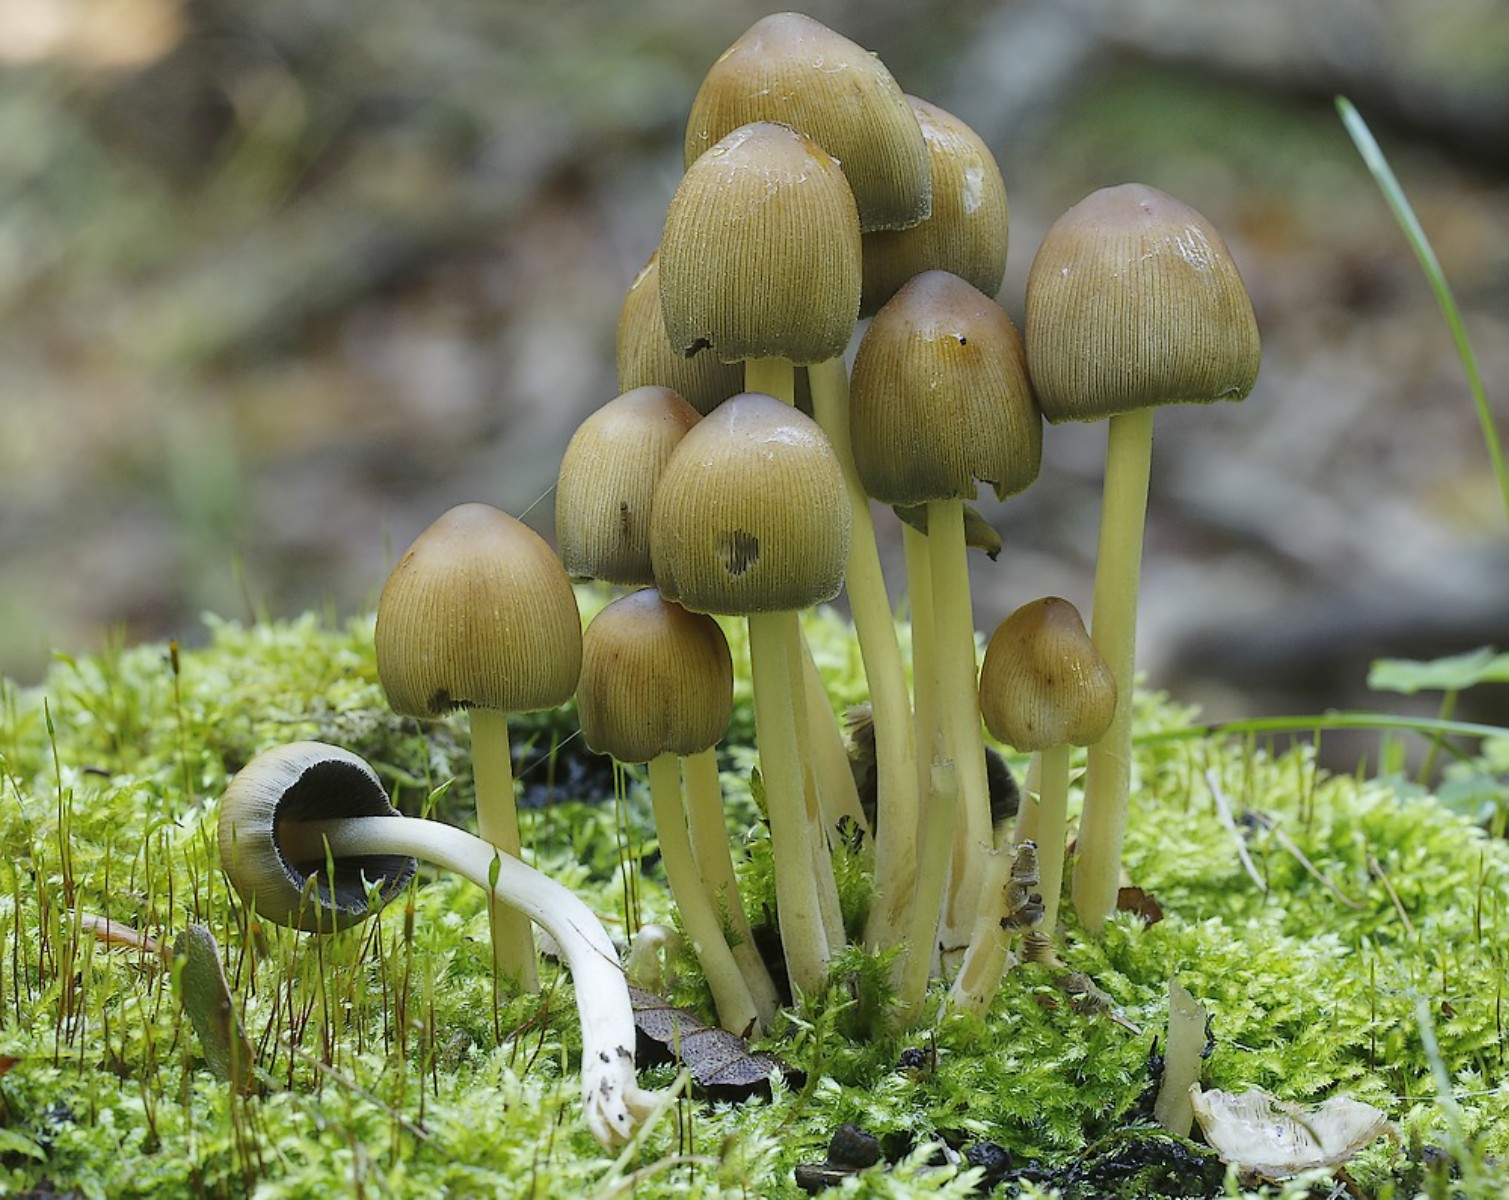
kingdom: Fungi
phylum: Basidiomycota
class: Agaricomycetes
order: Agaricales
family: Psathyrellaceae
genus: Coprinellus
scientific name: Coprinellus
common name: blækhat
